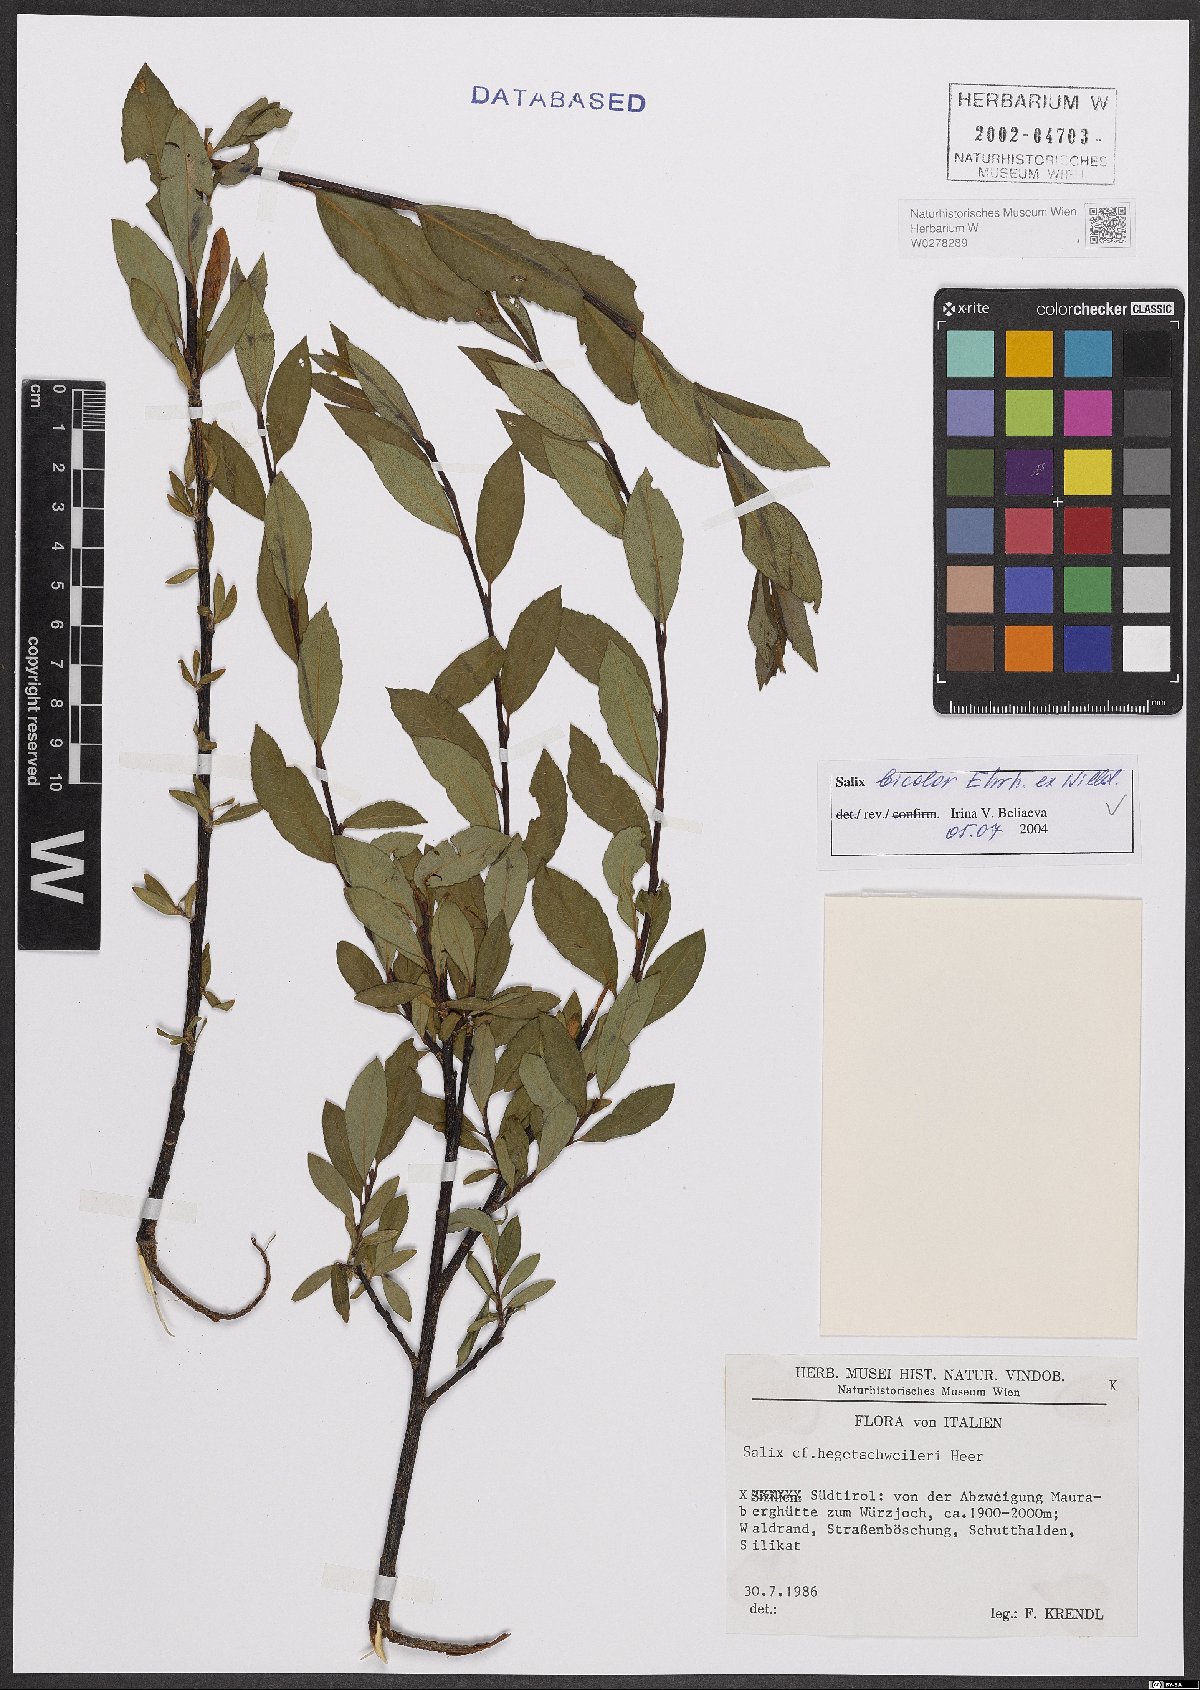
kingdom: Plantae
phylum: Tracheophyta
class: Magnoliopsida
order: Malpighiales
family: Salicaceae
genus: Salix
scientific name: Salix bicolor
